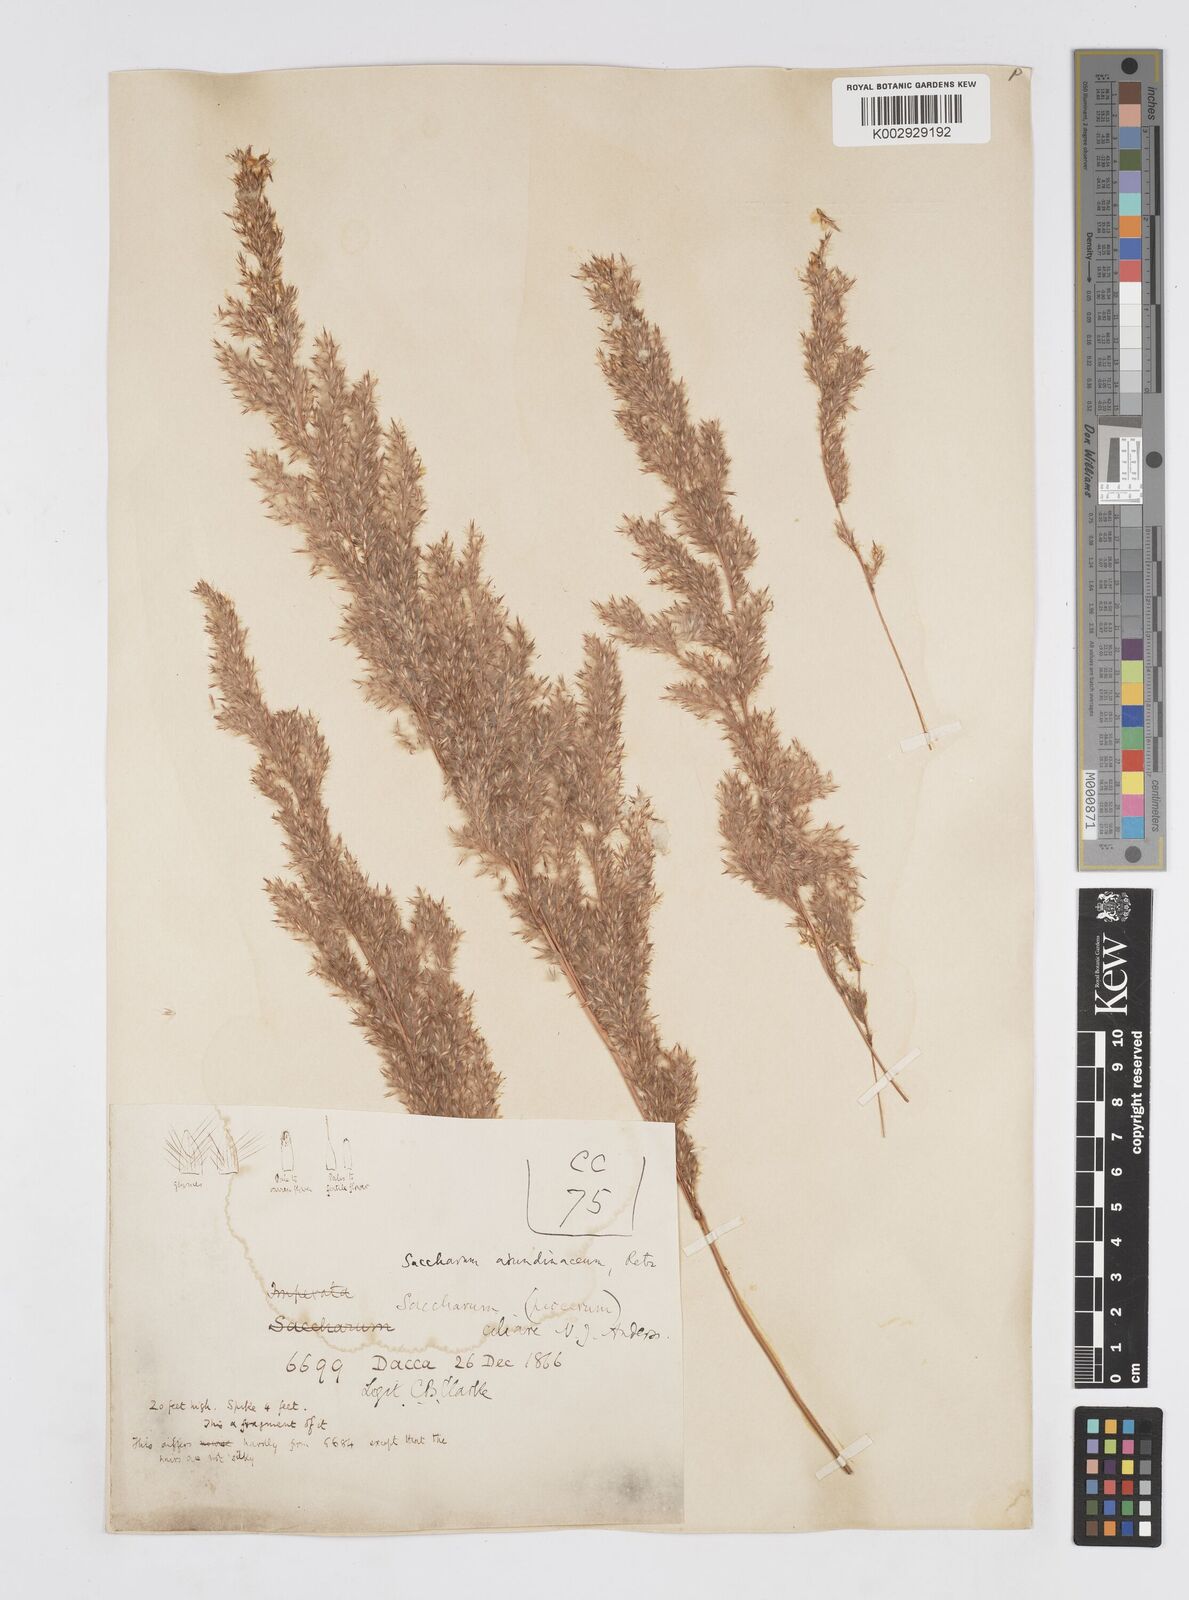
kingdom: Plantae
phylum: Tracheophyta
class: Liliopsida
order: Poales
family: Poaceae
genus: Tripidium
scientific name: Tripidium ravennae
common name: Ravenna grass
